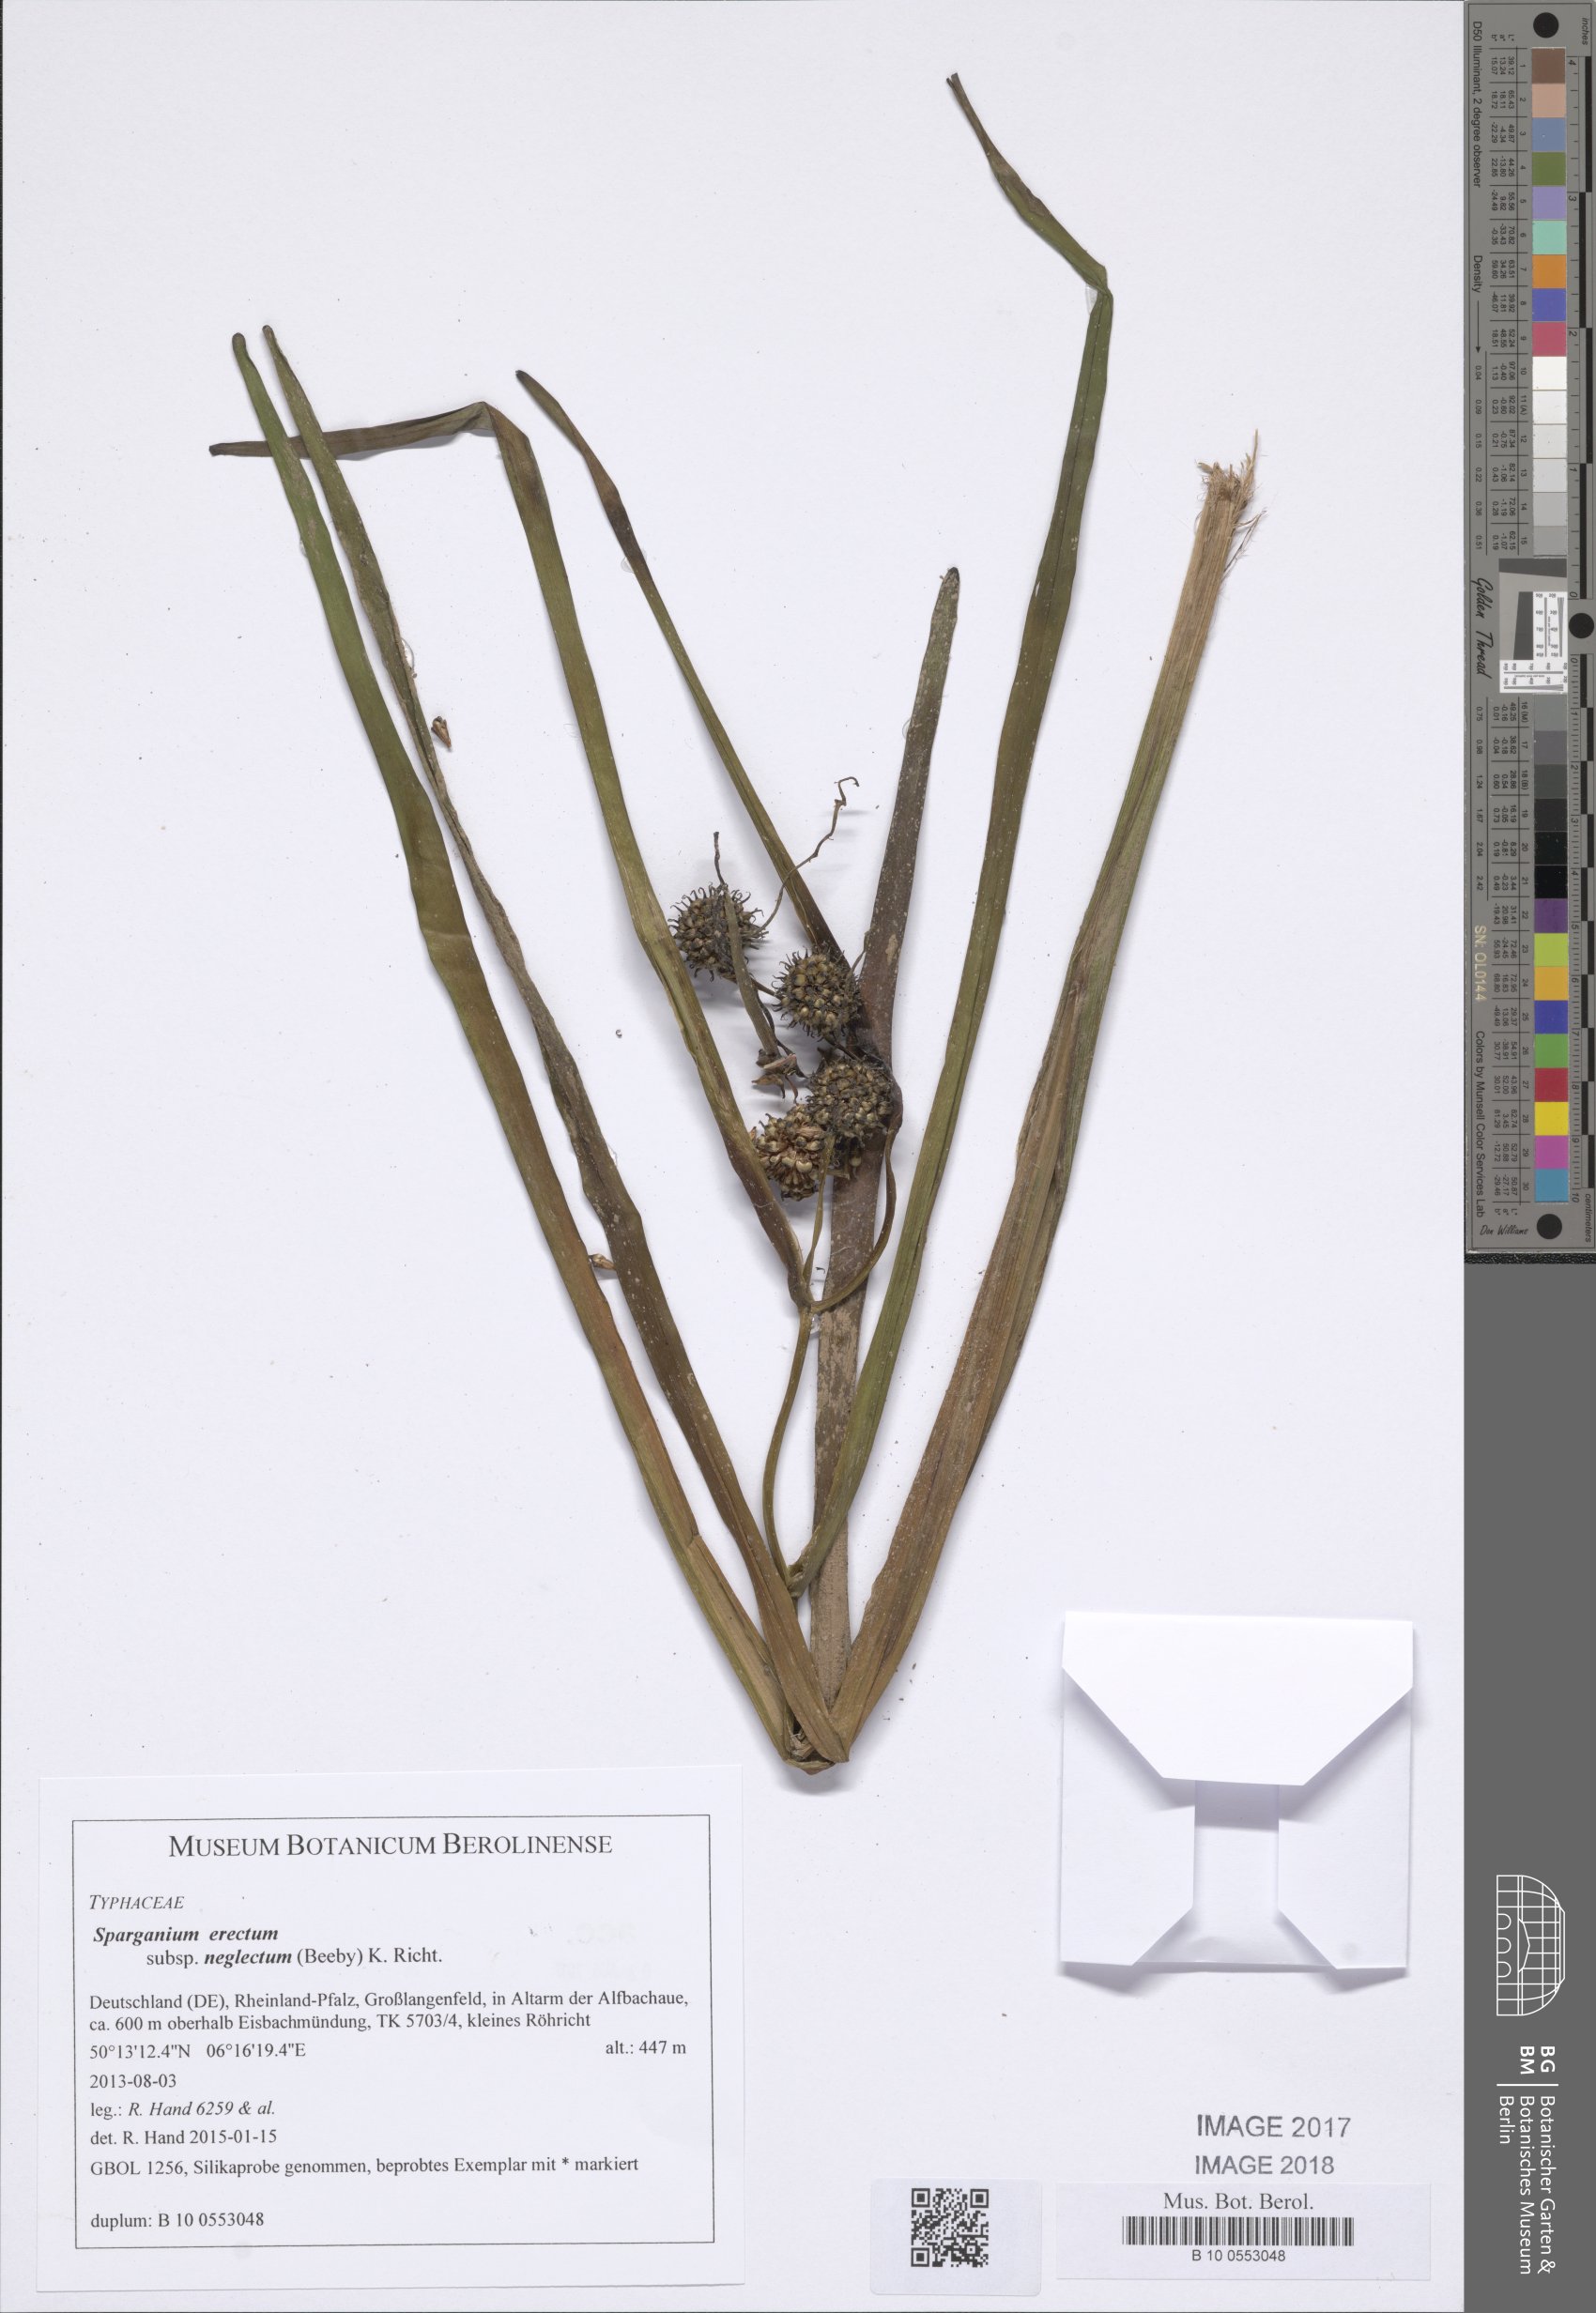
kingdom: Plantae
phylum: Tracheophyta
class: Liliopsida
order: Poales
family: Typhaceae
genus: Sparganium
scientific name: Sparganium erectum
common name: Branched bur-reed
